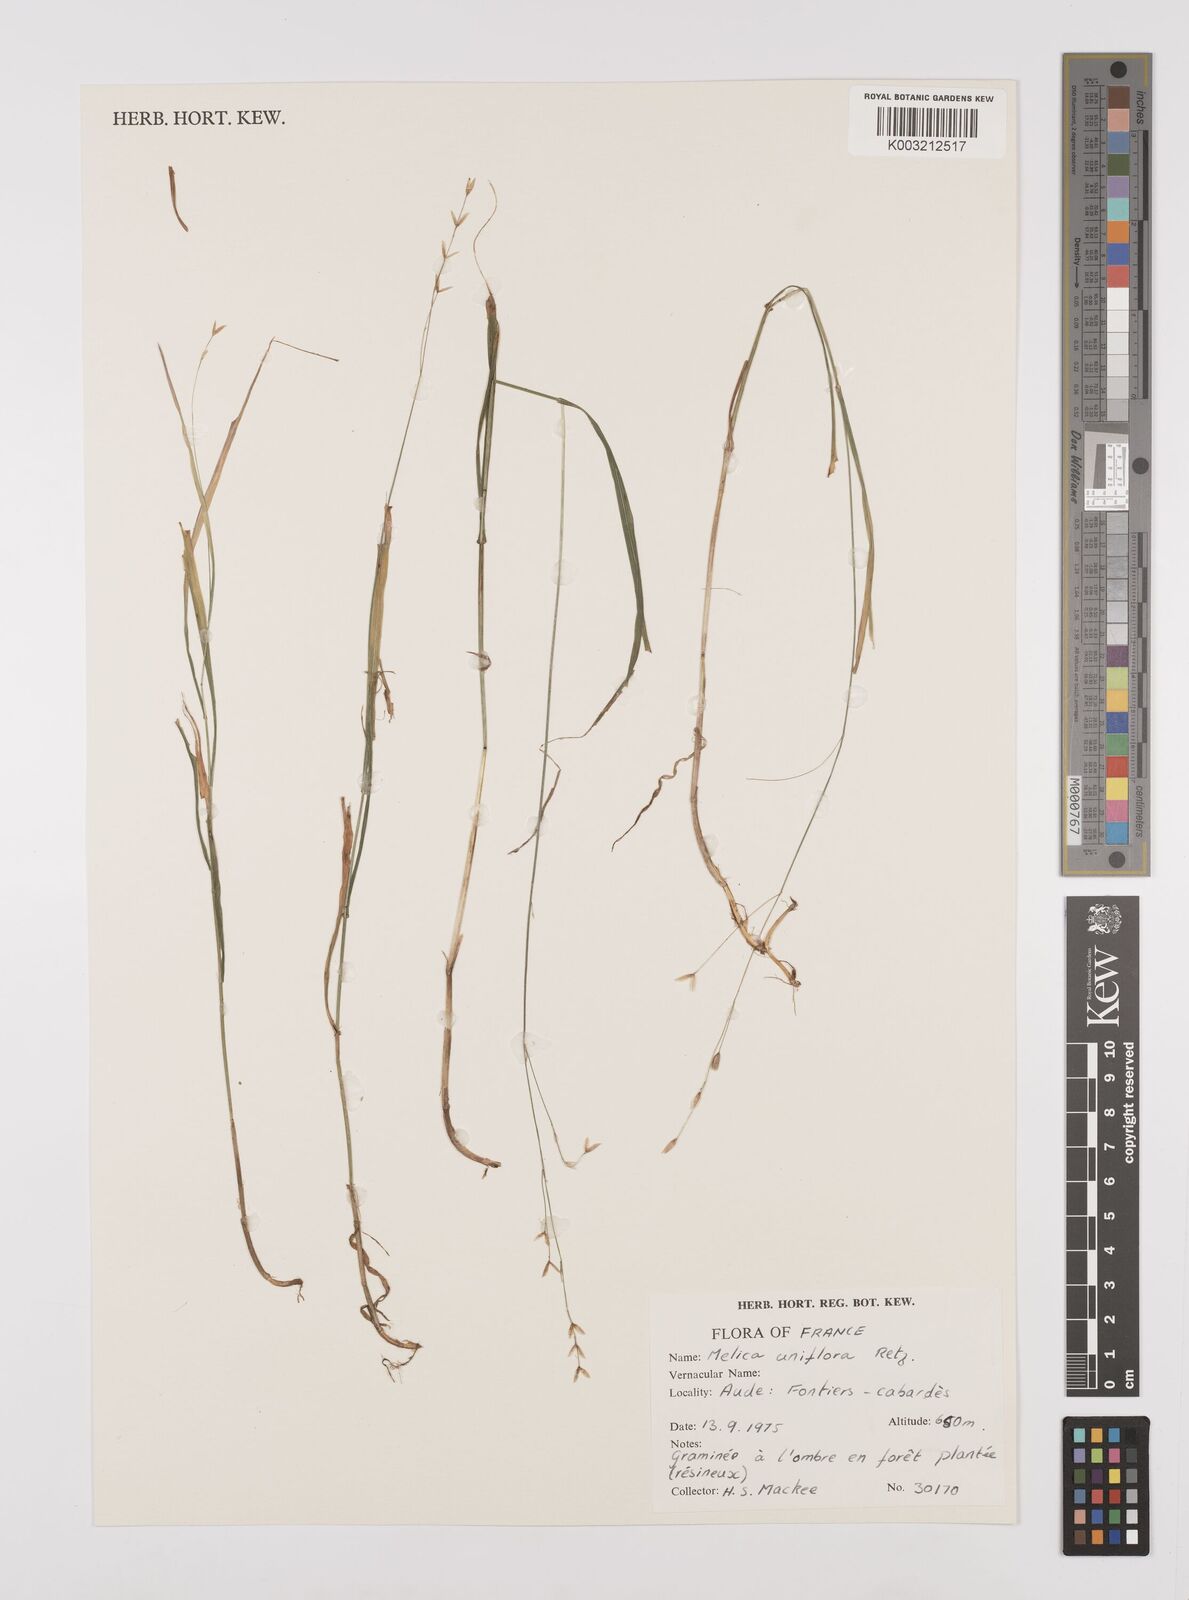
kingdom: Plantae
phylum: Tracheophyta
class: Liliopsida
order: Poales
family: Poaceae
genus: Melica
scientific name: Melica uniflora
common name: Wood melick
